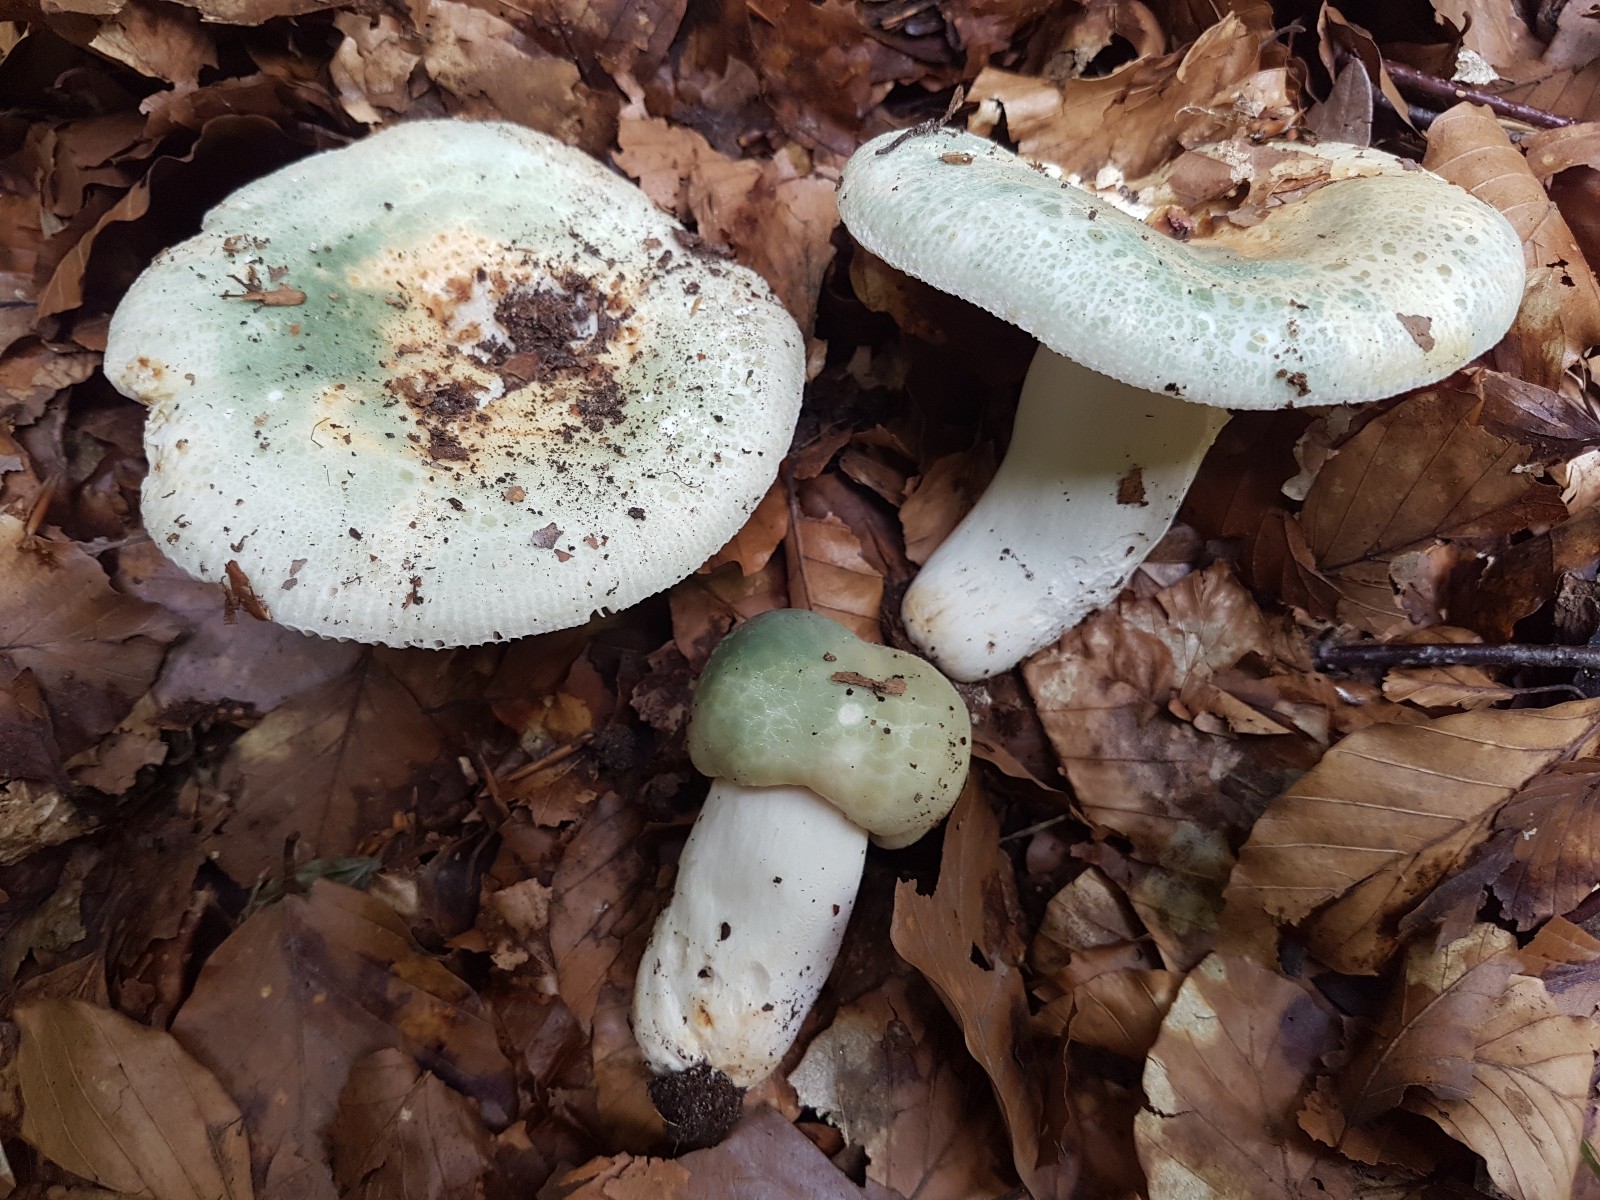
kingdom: Fungi
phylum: Basidiomycota
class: Agaricomycetes
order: Russulales
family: Russulaceae
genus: Russula
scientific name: Russula virescens
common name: spanskgrøn skørhat
